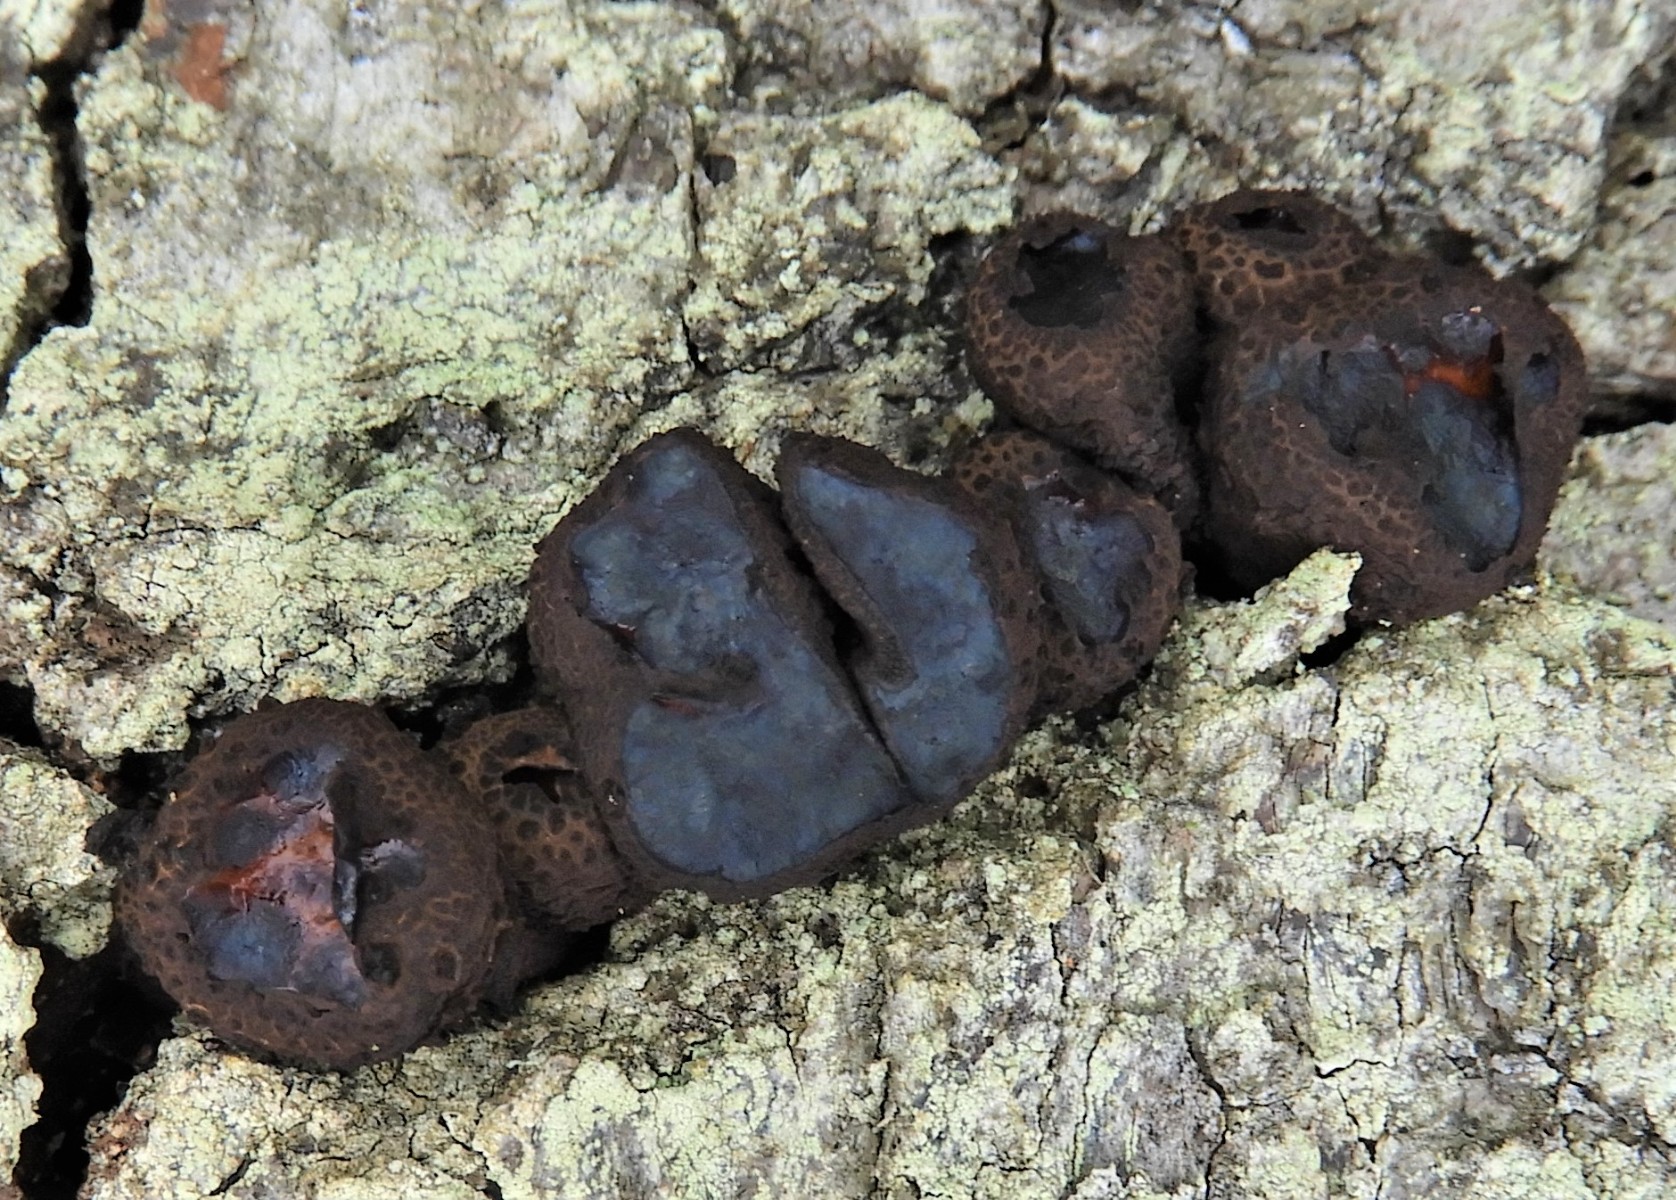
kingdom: Fungi
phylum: Ascomycota
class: Leotiomycetes
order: Phacidiales
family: Phacidiaceae
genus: Bulgaria
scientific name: Bulgaria inquinans
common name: afsmittende topsvamp
